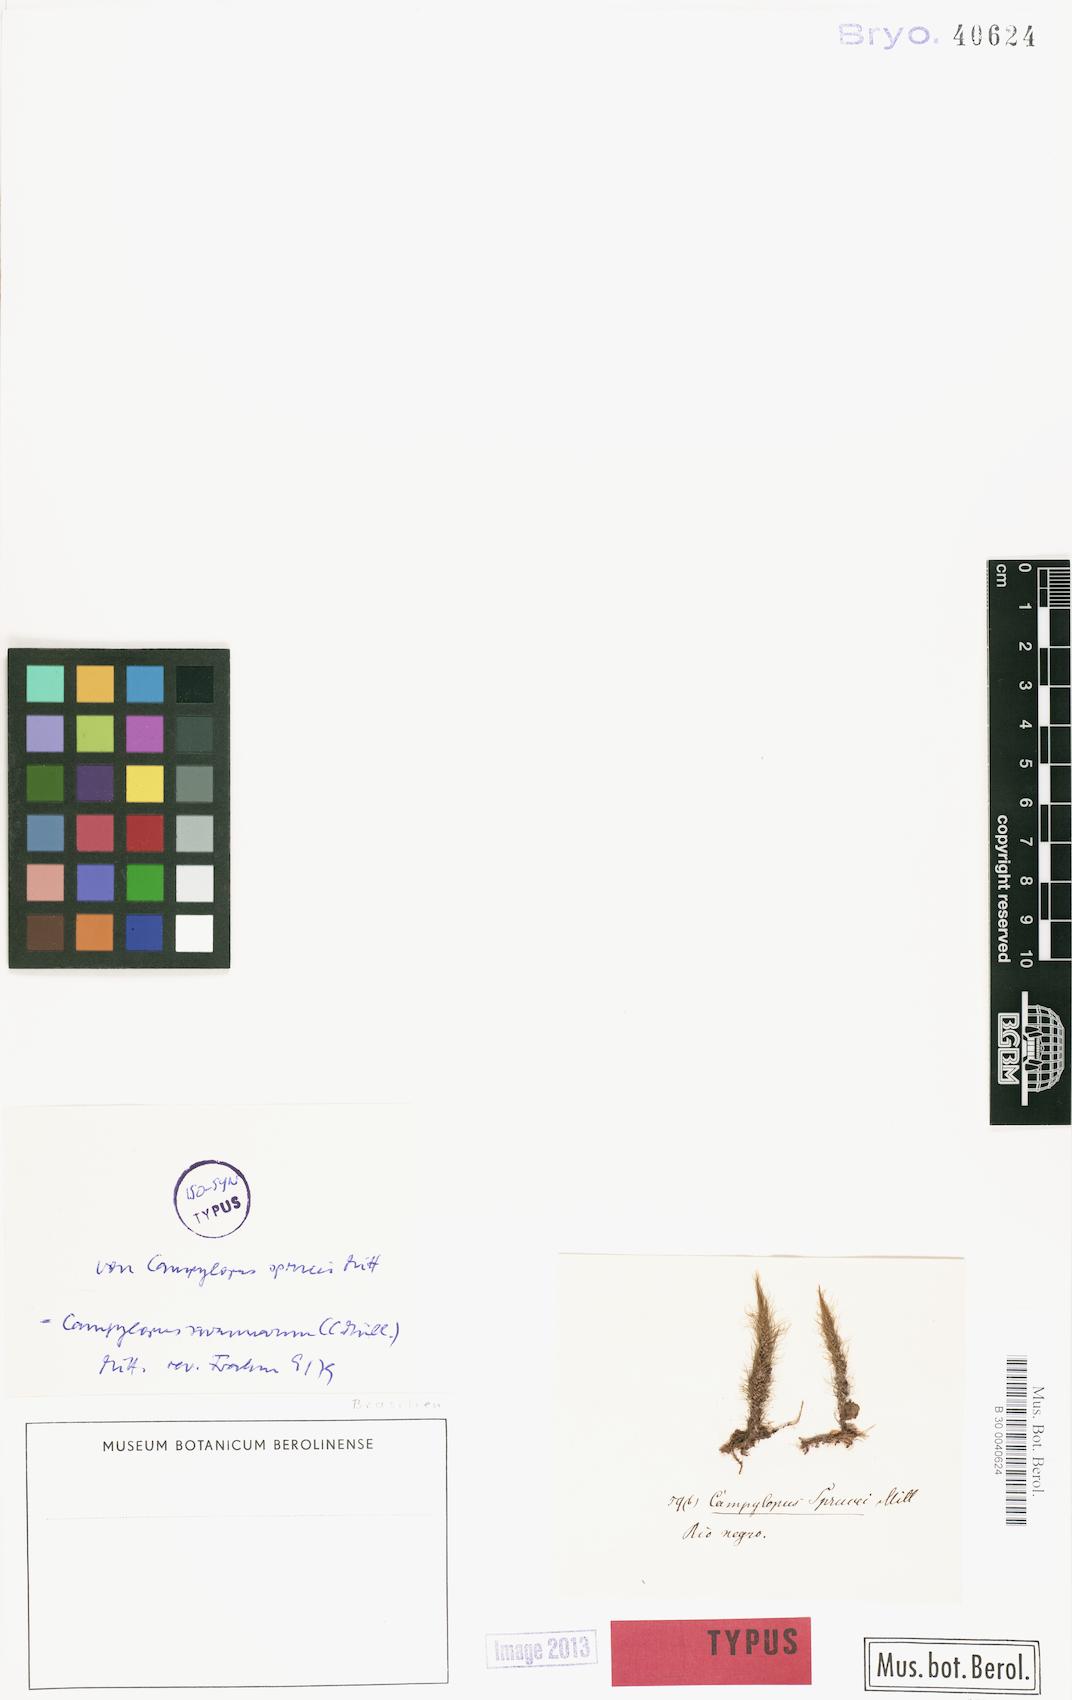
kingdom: Plantae
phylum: Bryophyta
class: Bryopsida
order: Dicranales
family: Leucobryaceae
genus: Campylopus
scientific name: Campylopus savannarum
